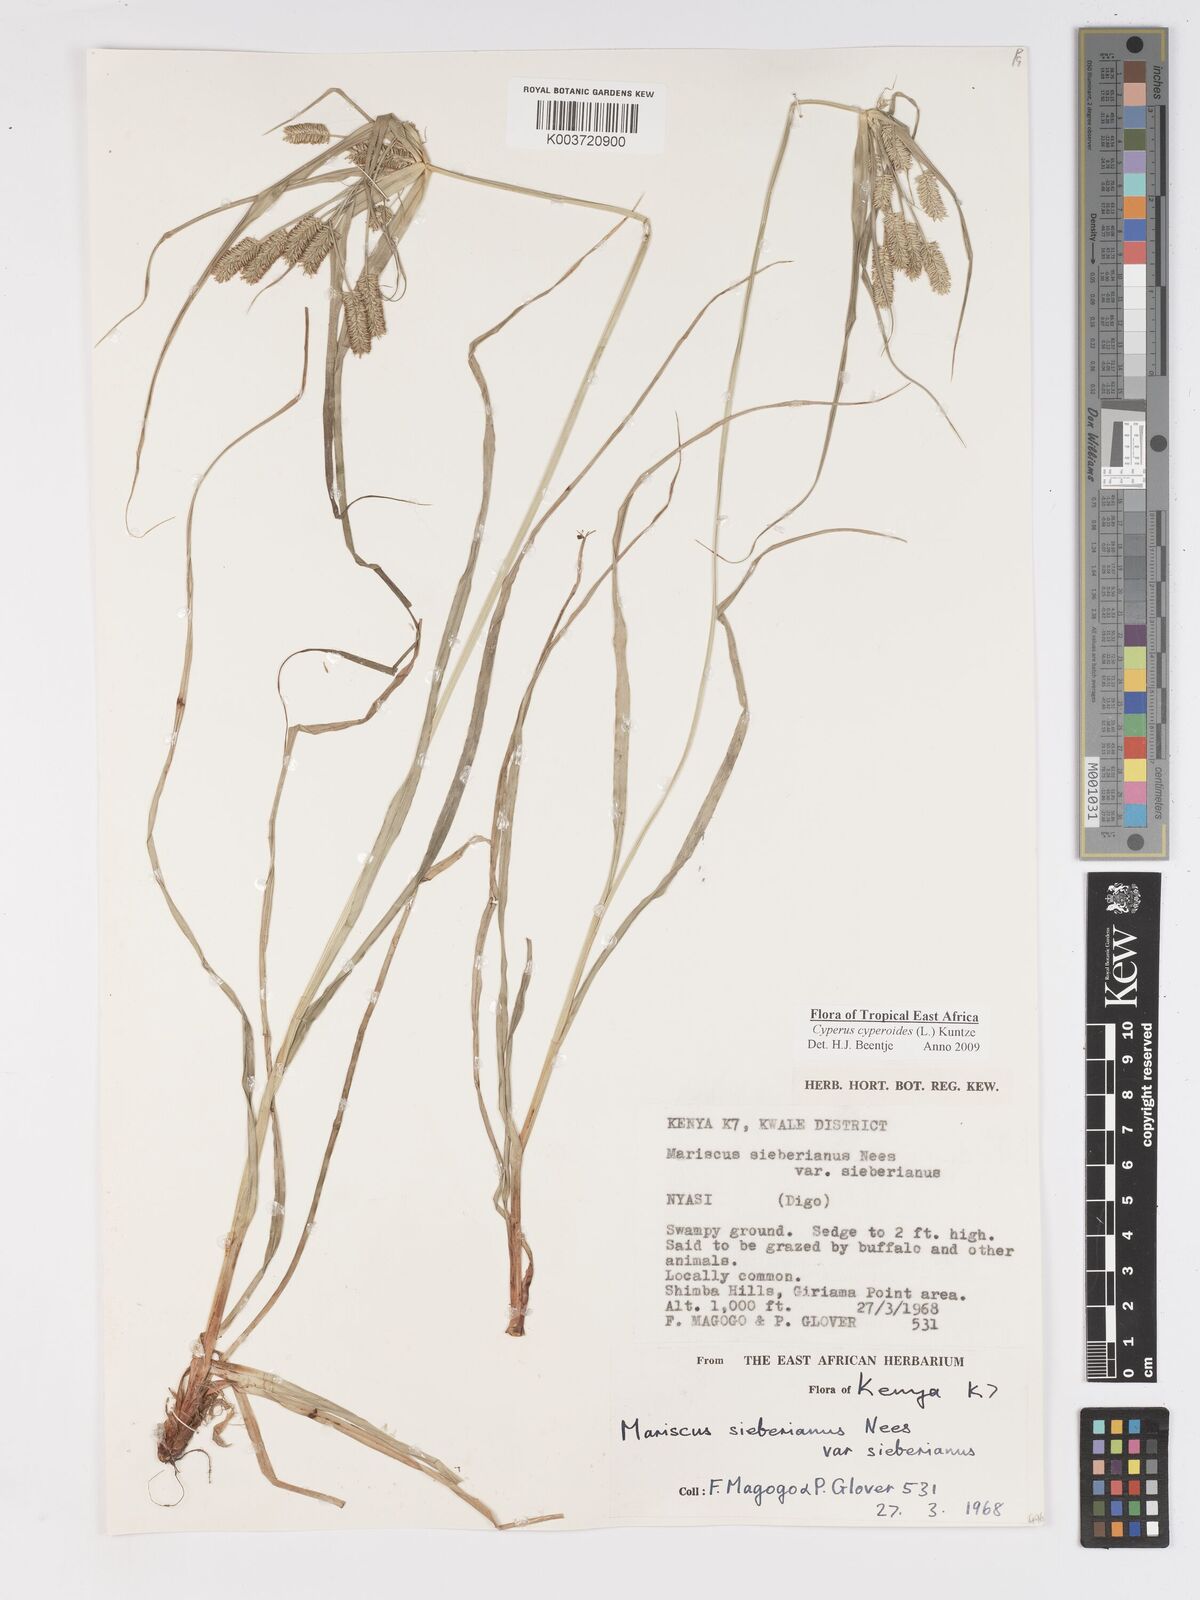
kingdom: Plantae
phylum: Tracheophyta
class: Liliopsida
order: Poales
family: Cyperaceae
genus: Cyperus
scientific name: Cyperus cyperoides
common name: Pacific island flat sedge
